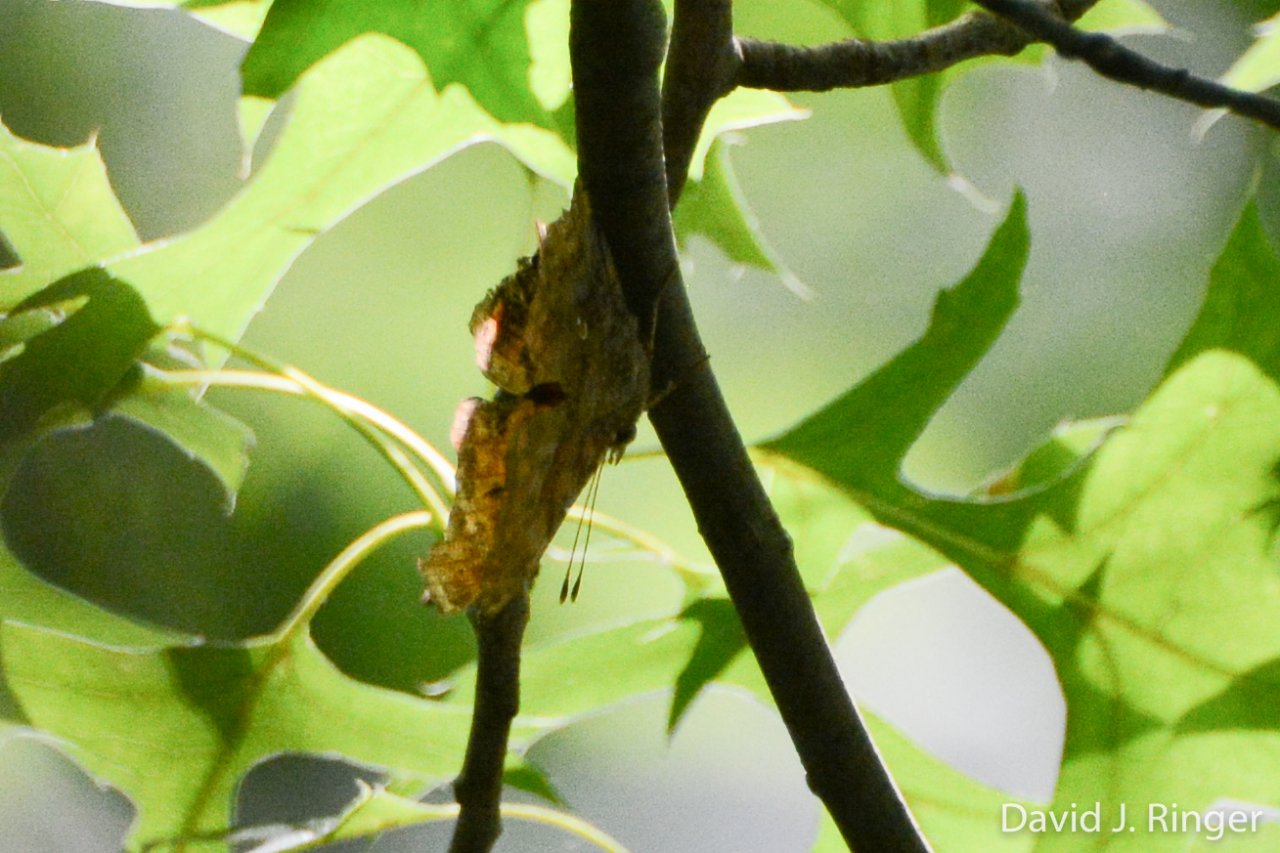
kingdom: Animalia
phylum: Arthropoda
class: Insecta
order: Lepidoptera
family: Nymphalidae
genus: Polygonia
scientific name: Polygonia interrogationis
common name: Question Mark
